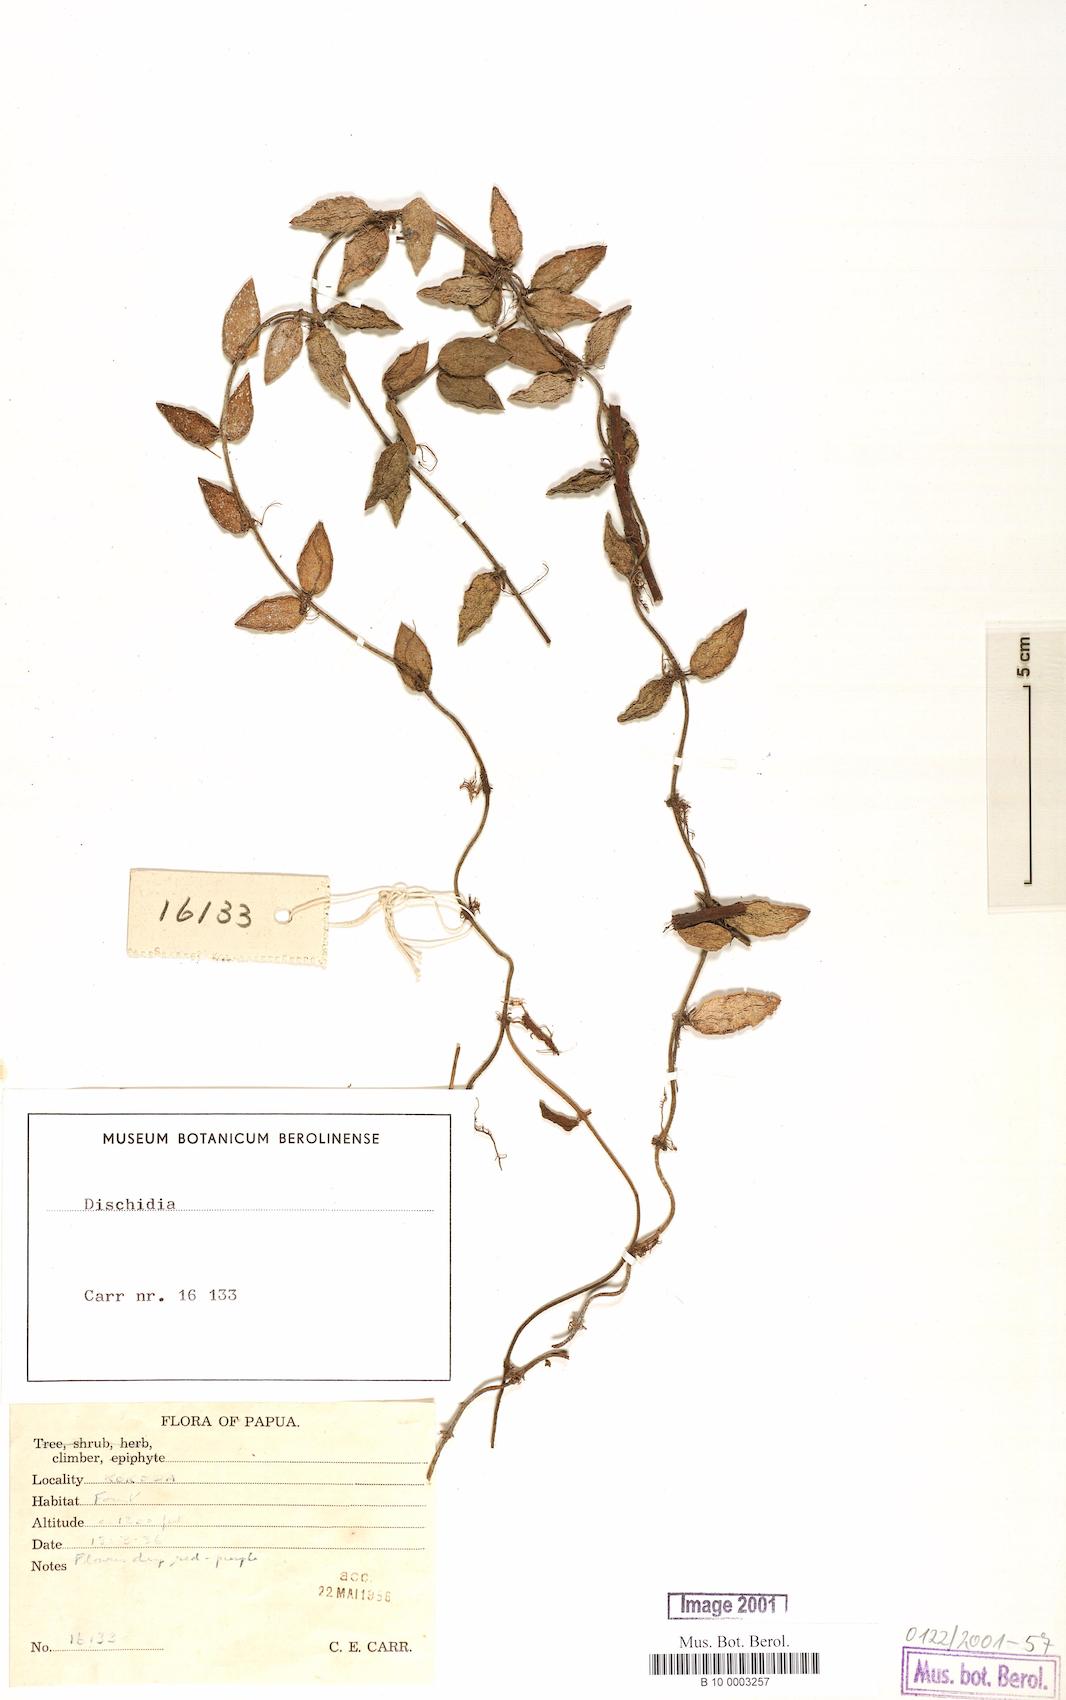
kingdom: Plantae
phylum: Tracheophyta
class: Magnoliopsida
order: Gentianales
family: Apocynaceae
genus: Dischidia
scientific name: Dischidia
